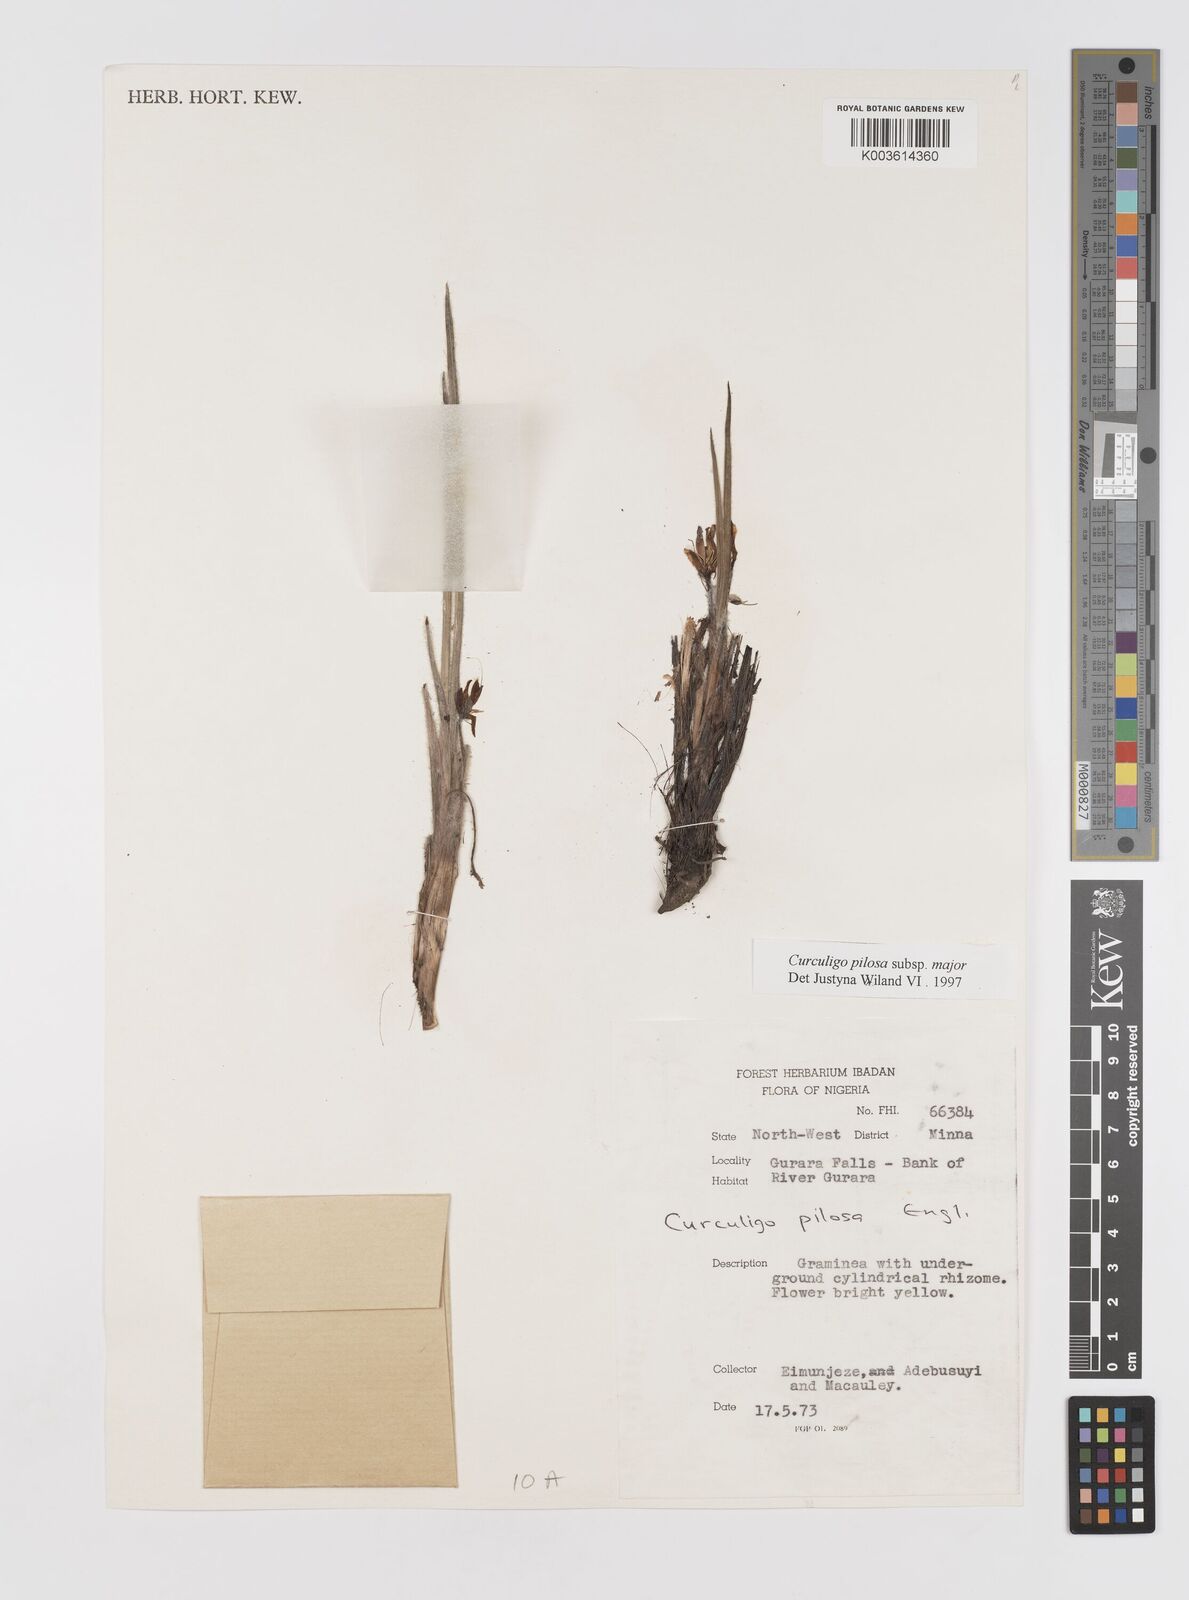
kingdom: Plantae
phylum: Tracheophyta
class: Liliopsida
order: Asparagales
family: Hypoxidaceae
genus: Curculigo
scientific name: Curculigo pilosa
